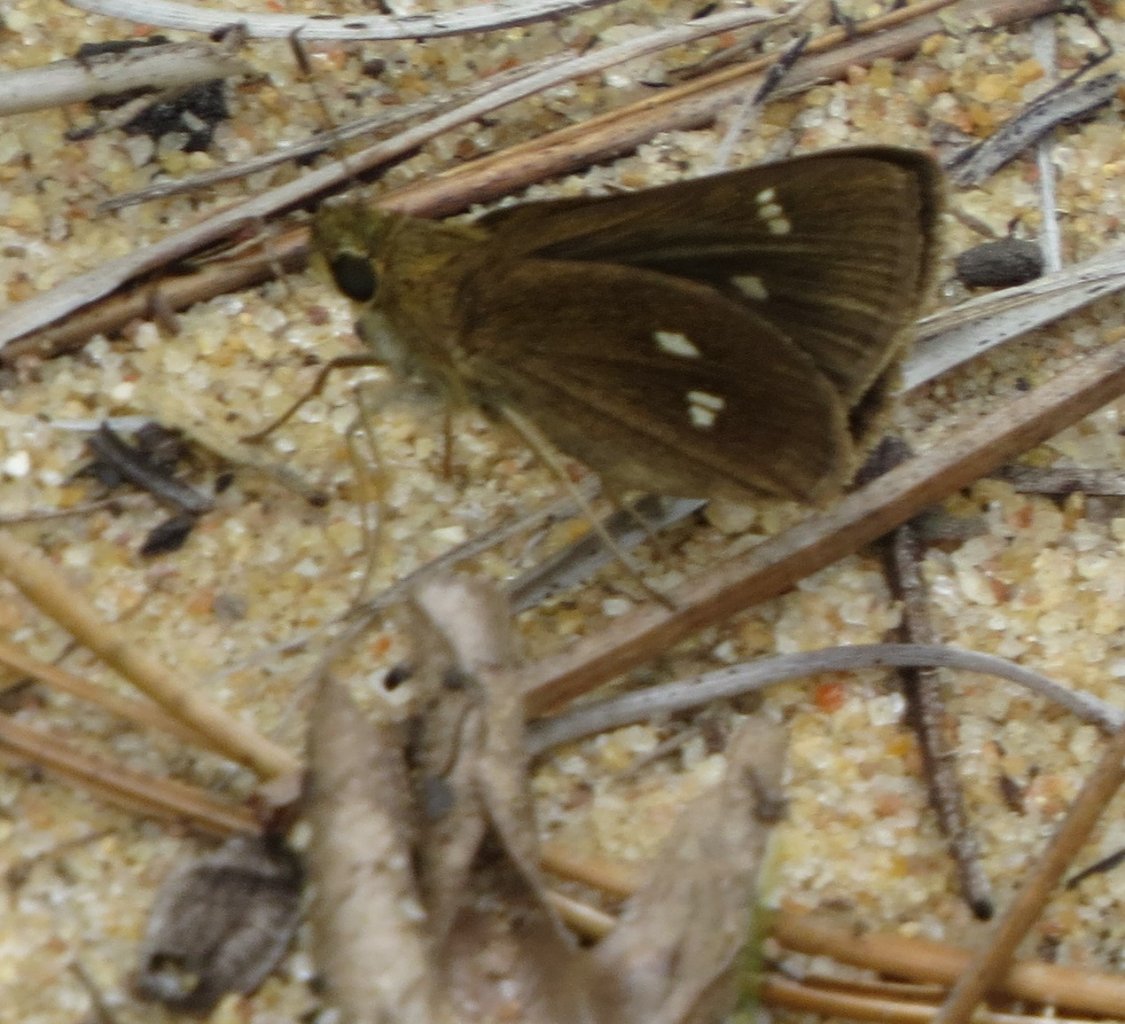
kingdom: Animalia
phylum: Arthropoda
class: Insecta
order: Lepidoptera
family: Hesperiidae
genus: Oligoria
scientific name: Oligoria maculata
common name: Twin-spot Skipper
